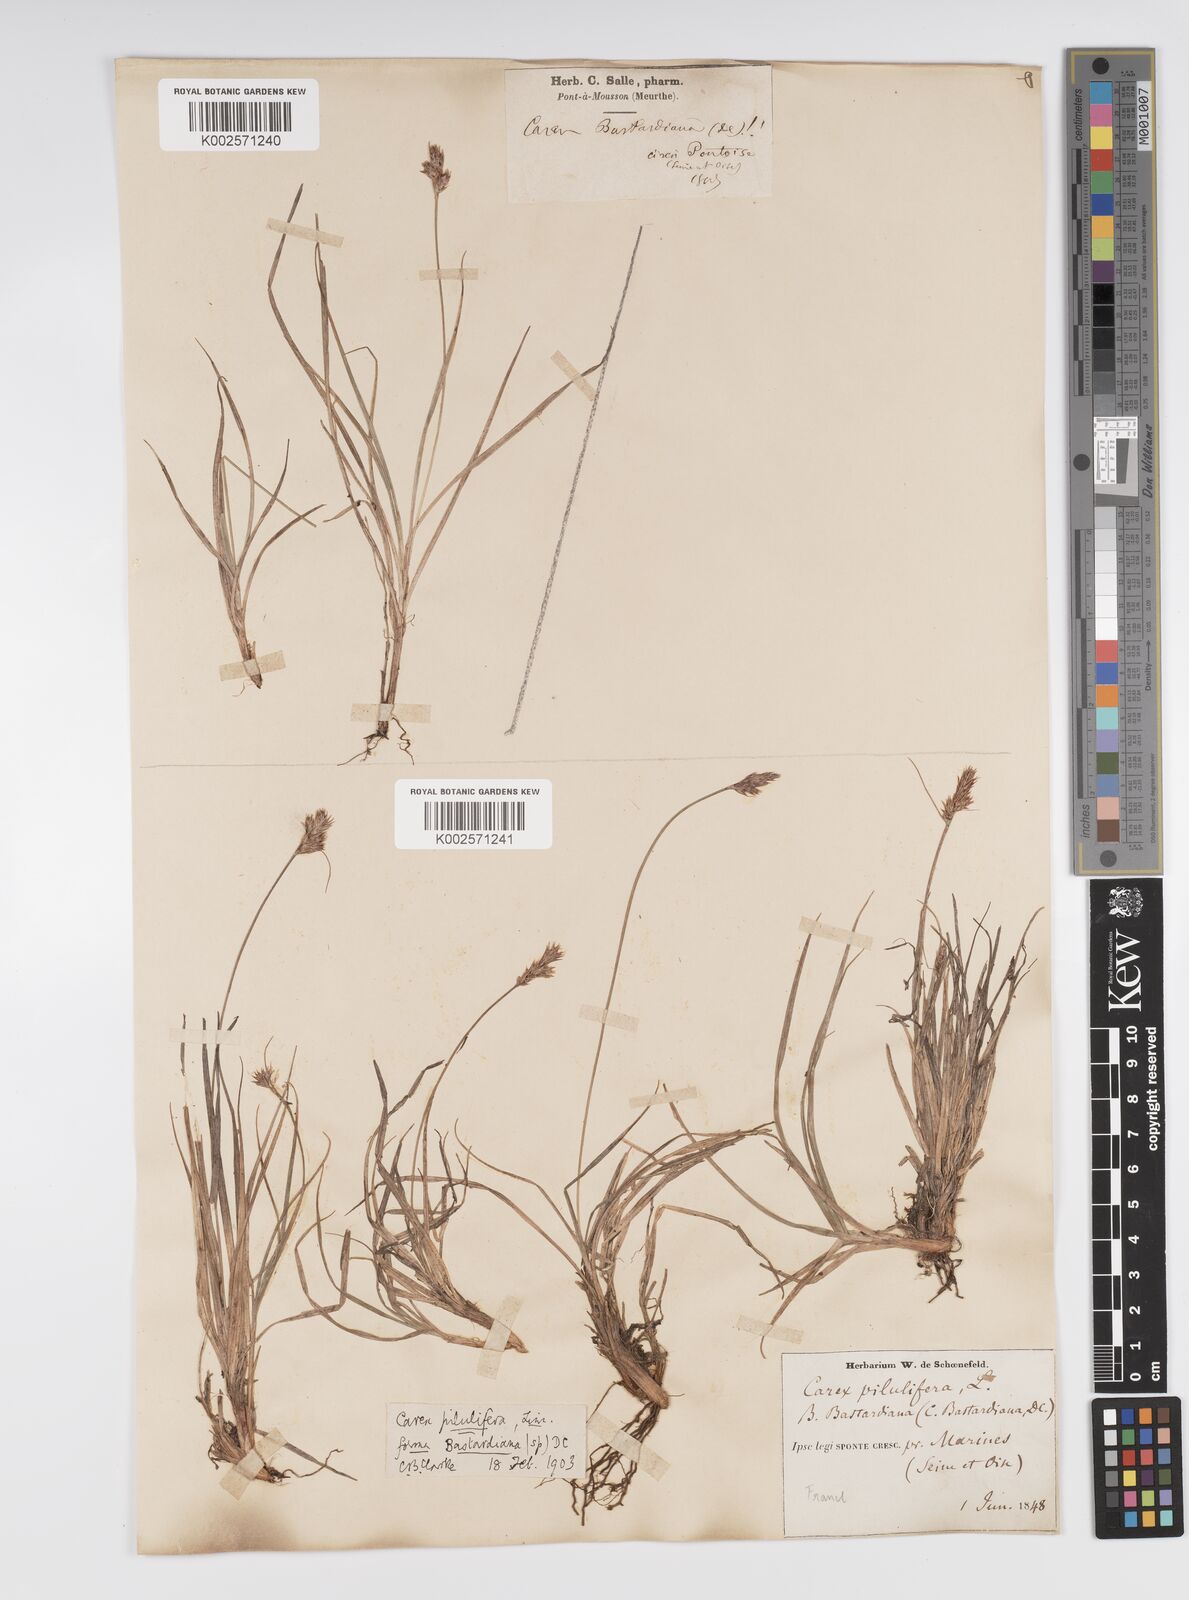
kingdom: Plantae
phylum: Tracheophyta
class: Liliopsida
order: Poales
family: Cyperaceae
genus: Carex
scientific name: Carex pilulifera
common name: Pill sedge
